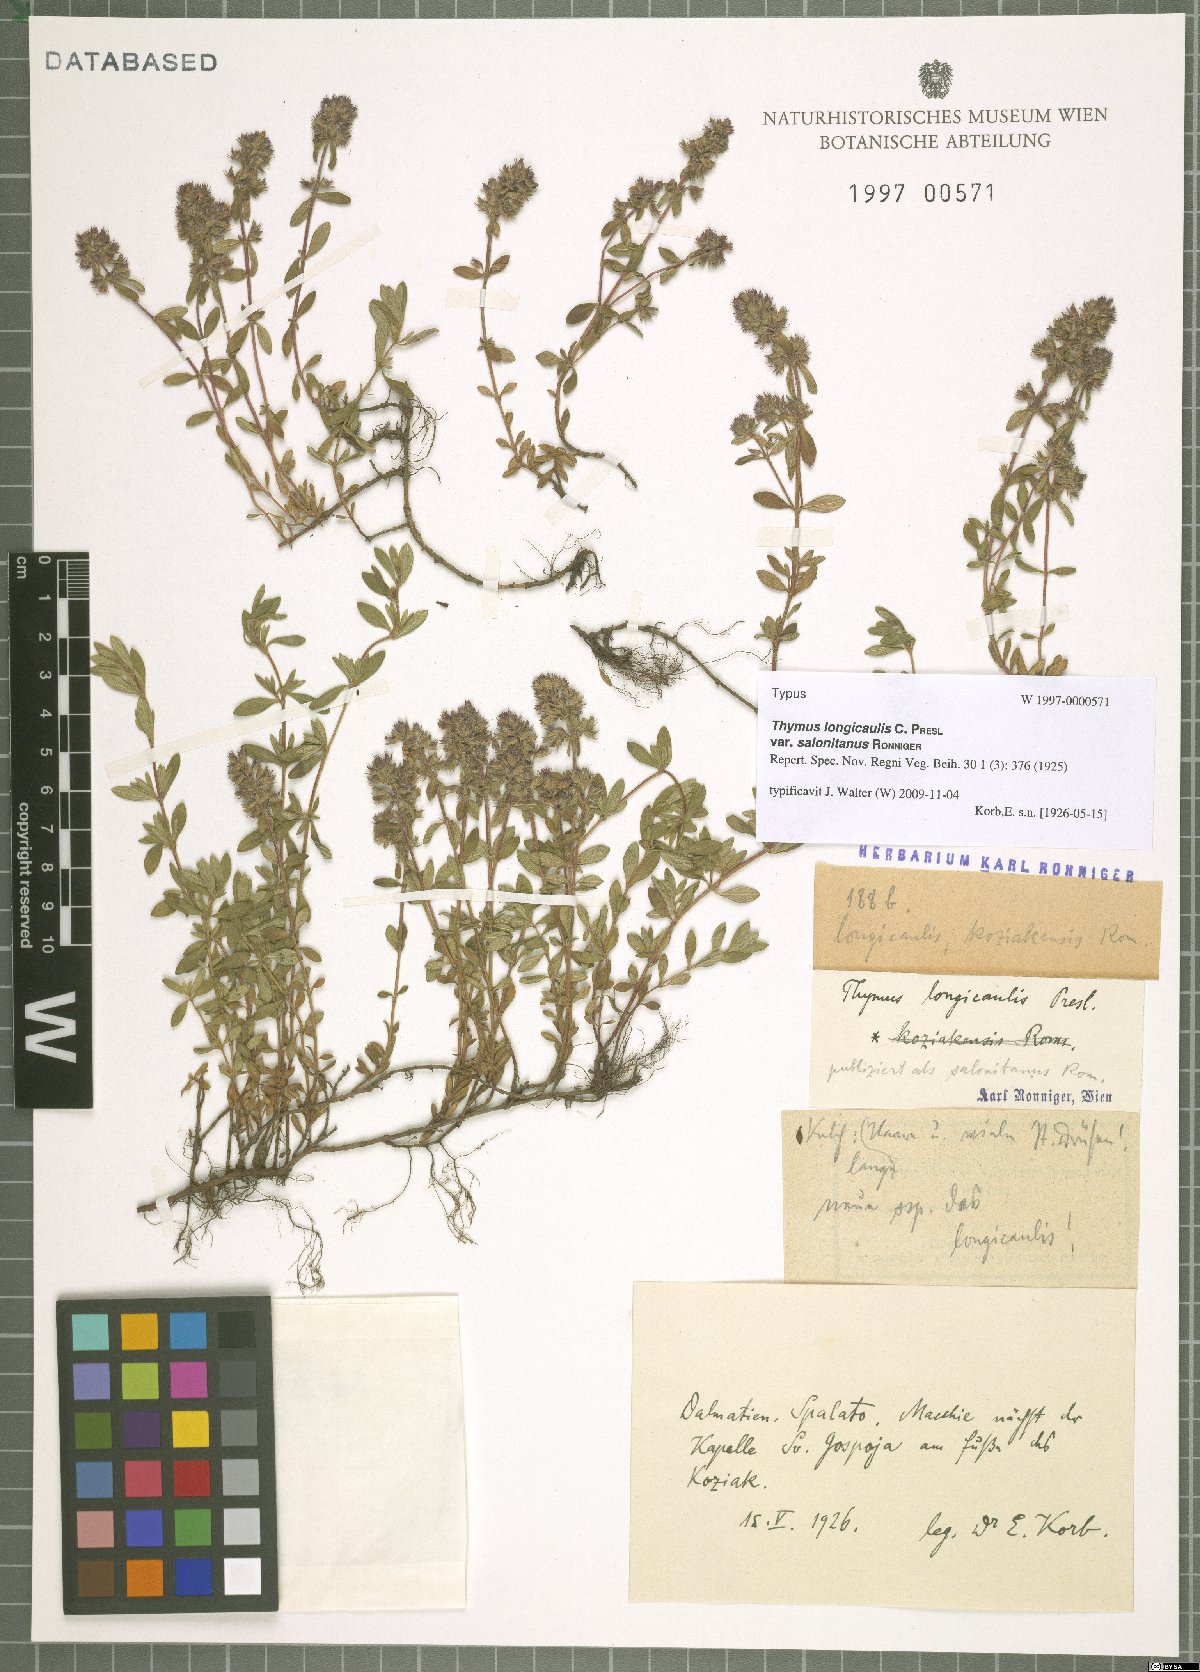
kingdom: Plantae
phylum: Tracheophyta
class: Magnoliopsida
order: Lamiales
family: Lamiaceae
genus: Thymus
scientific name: Thymus longicaulis
